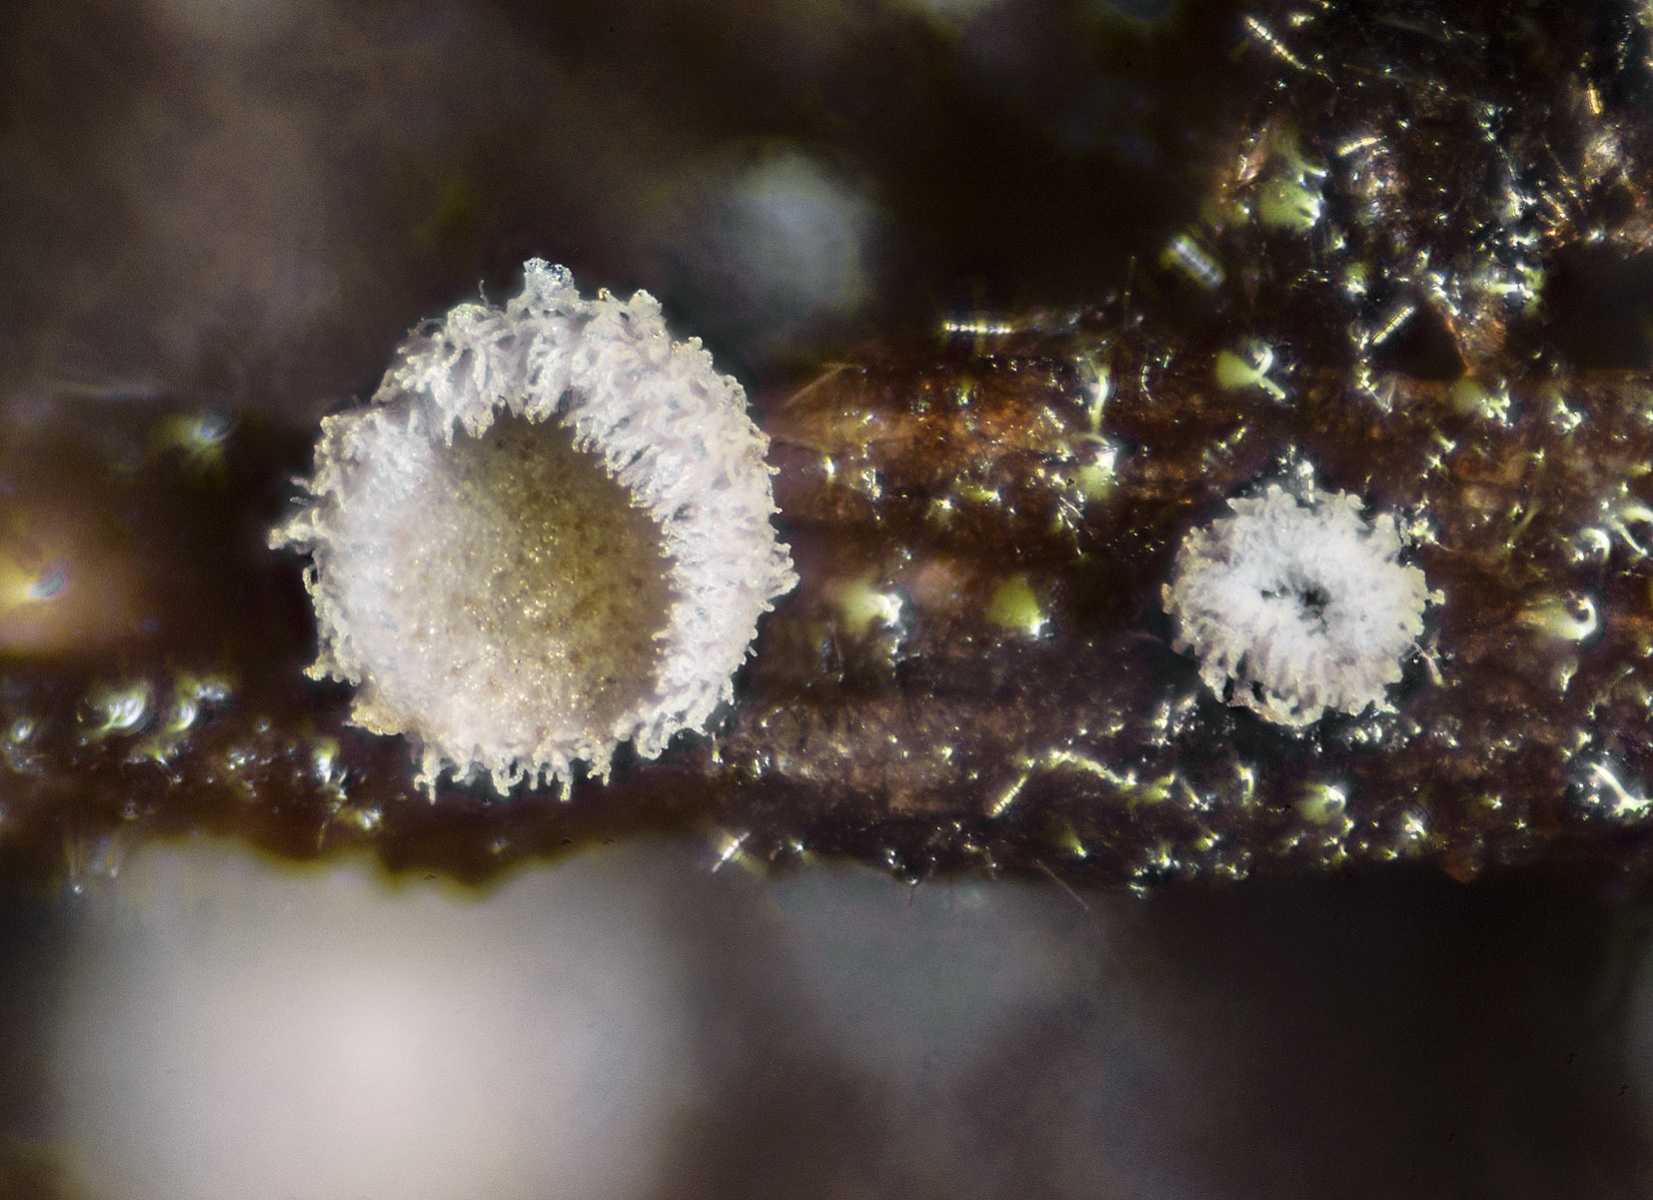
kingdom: Fungi
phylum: Basidiomycota
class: Agaricomycetes
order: Agaricales
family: Crepidotaceae
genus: Episphaeria
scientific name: Episphaeria fraxinicola
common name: askeskål
